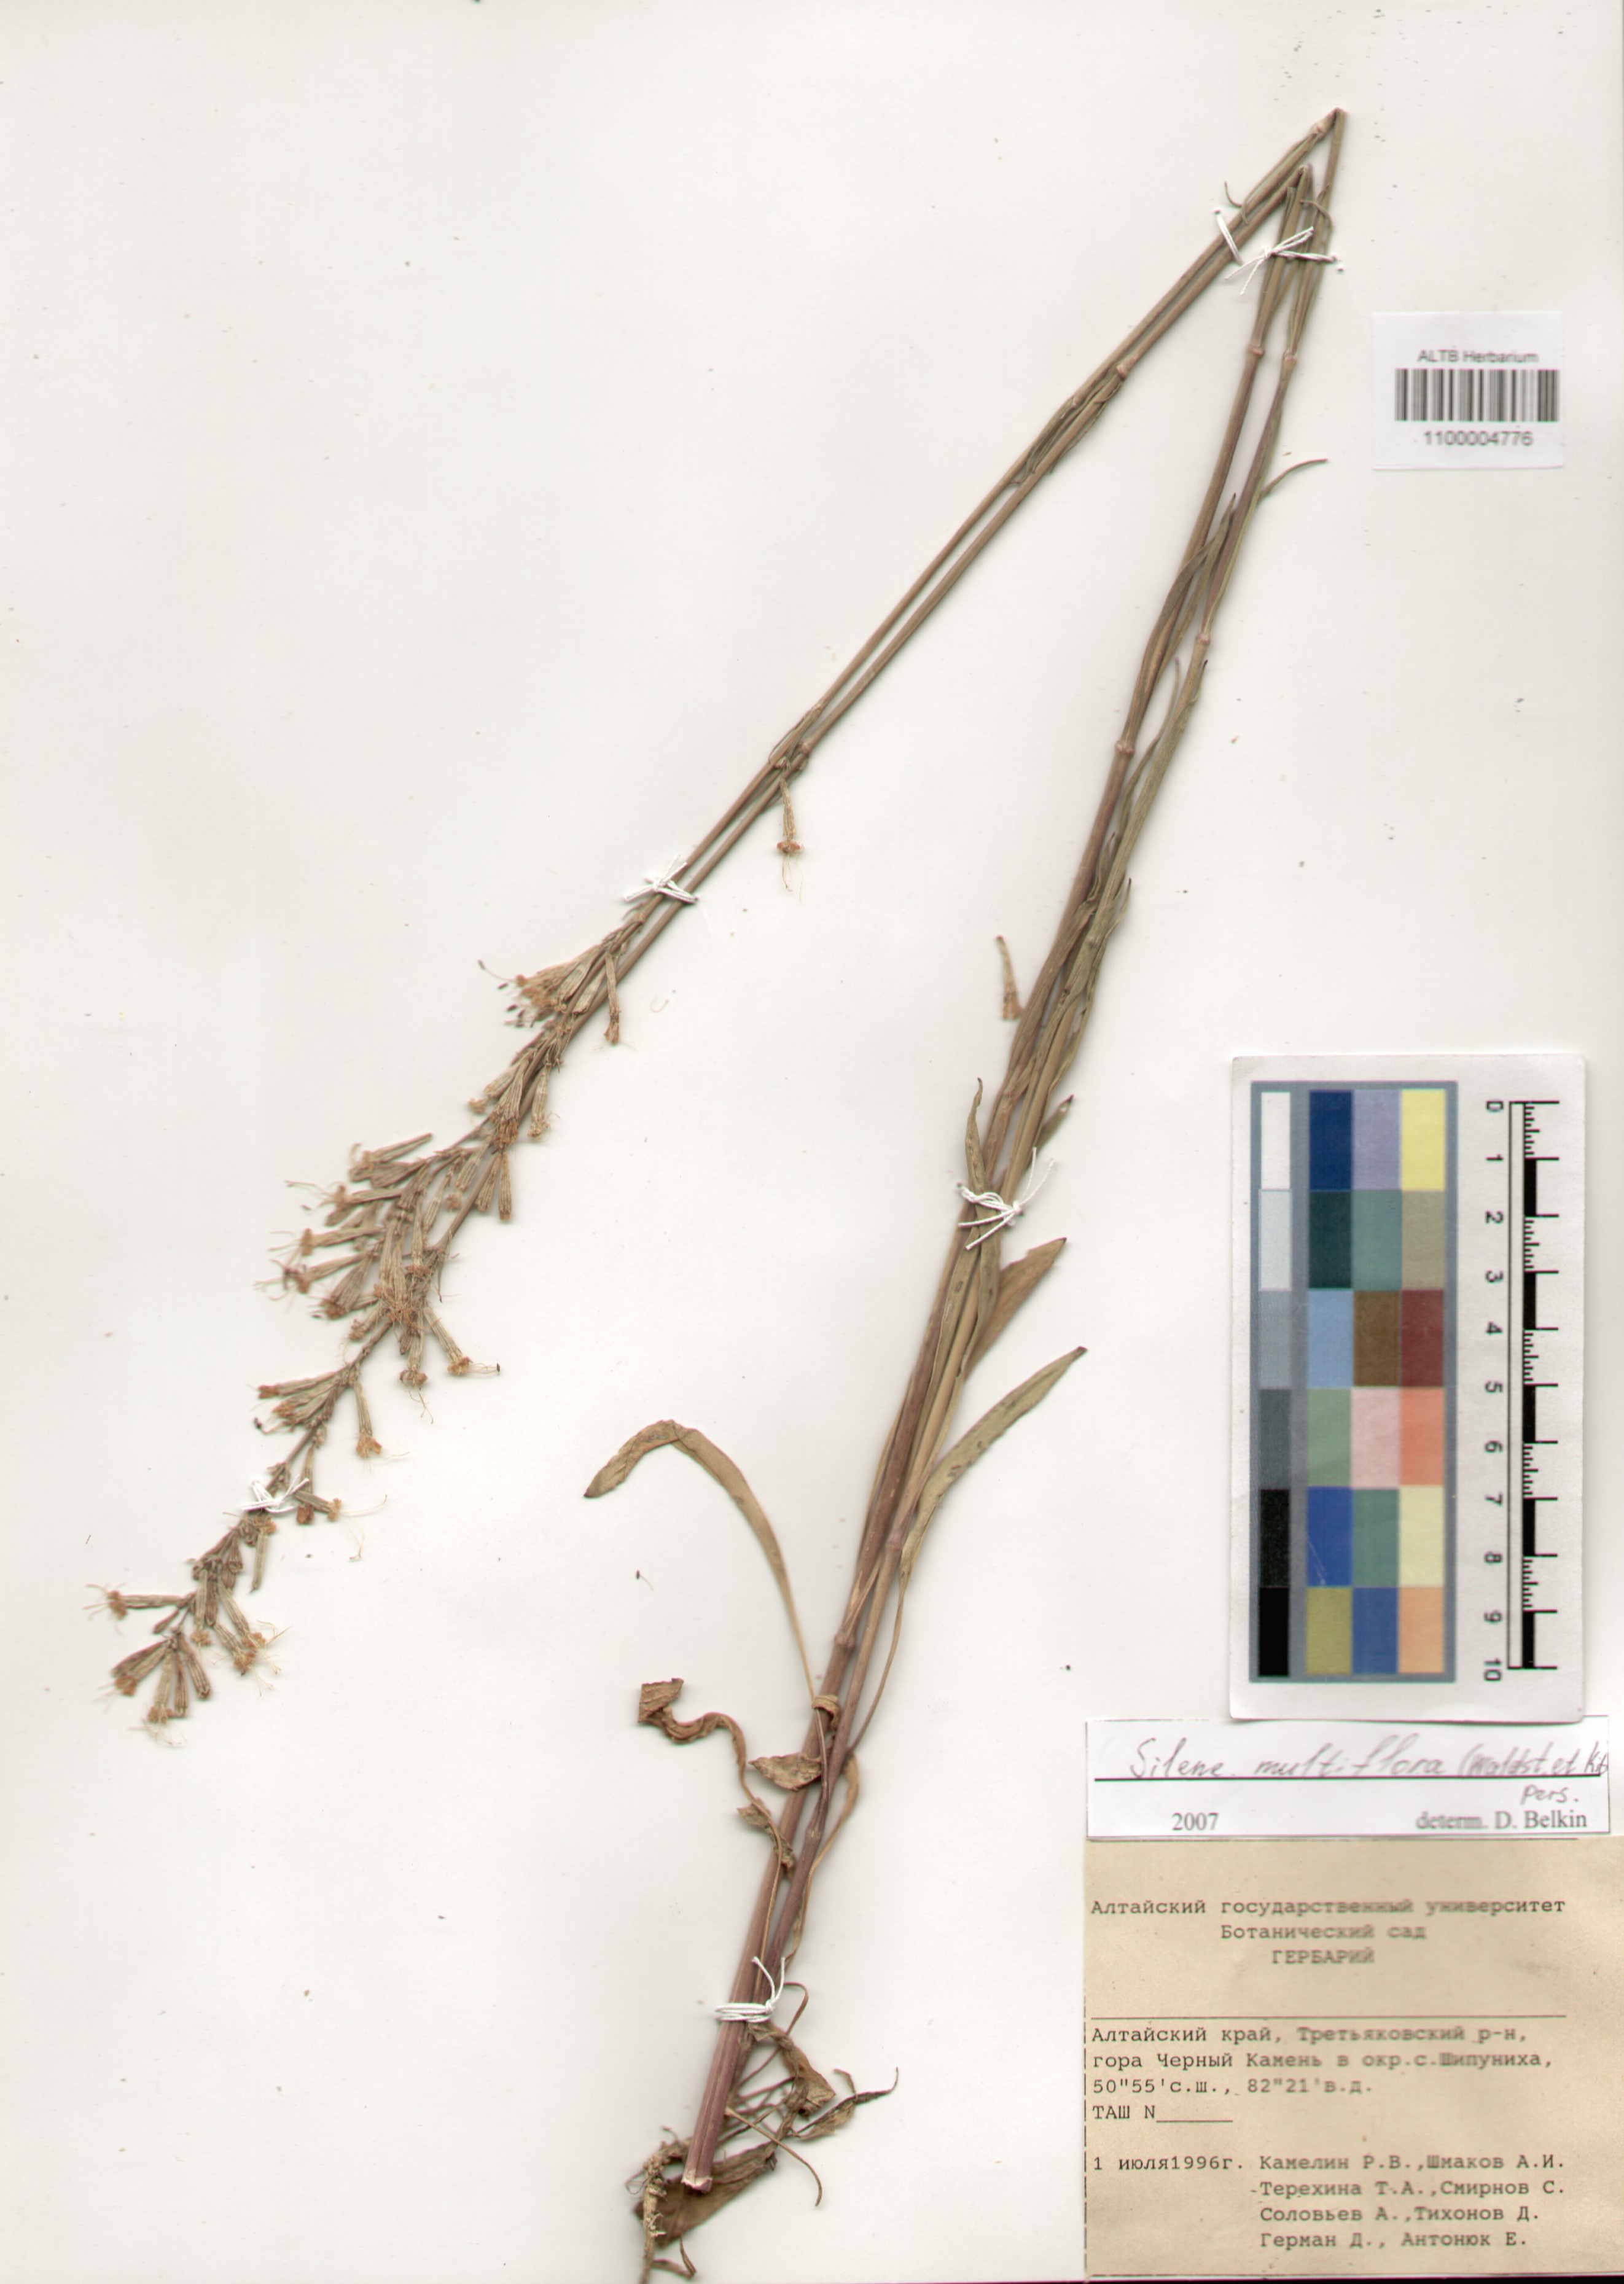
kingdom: Plantae
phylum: Tracheophyta
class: Magnoliopsida
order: Caryophyllales
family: Caryophyllaceae
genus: Silene
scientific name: Silene multiflora
